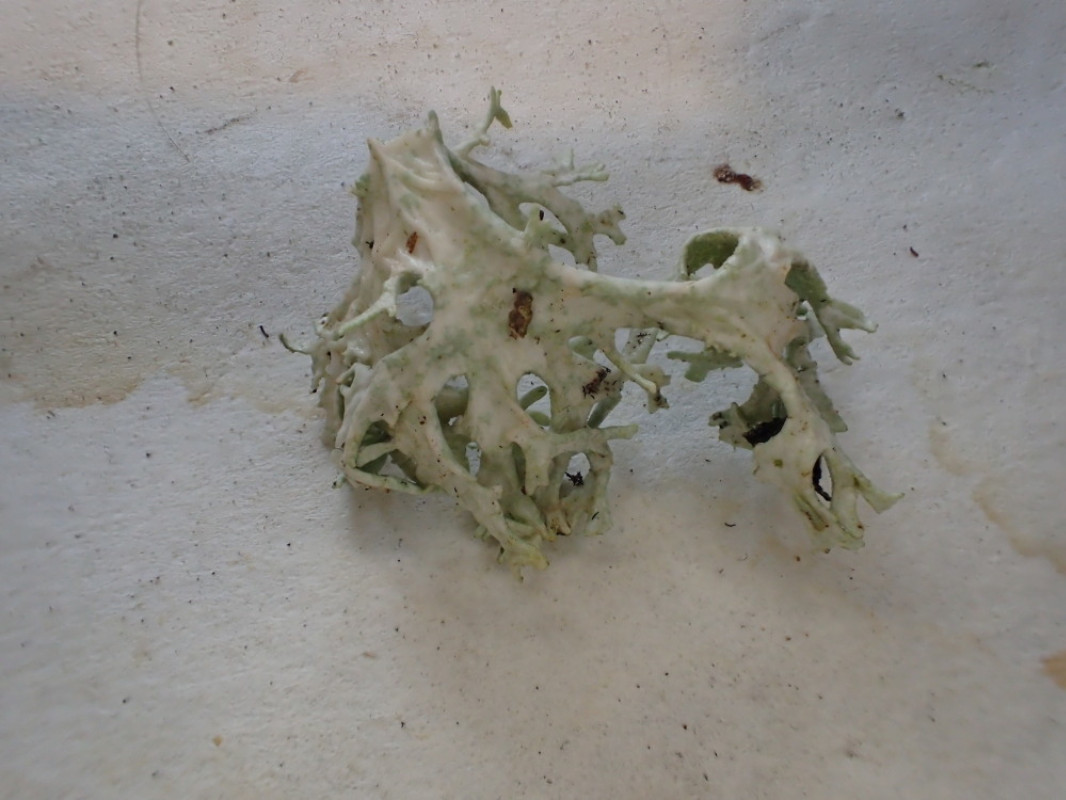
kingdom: Fungi
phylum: Ascomycota
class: Lecanoromycetes
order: Lecanorales
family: Parmeliaceae
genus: Evernia
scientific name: Evernia prunastri
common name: almindelig slåenlav
